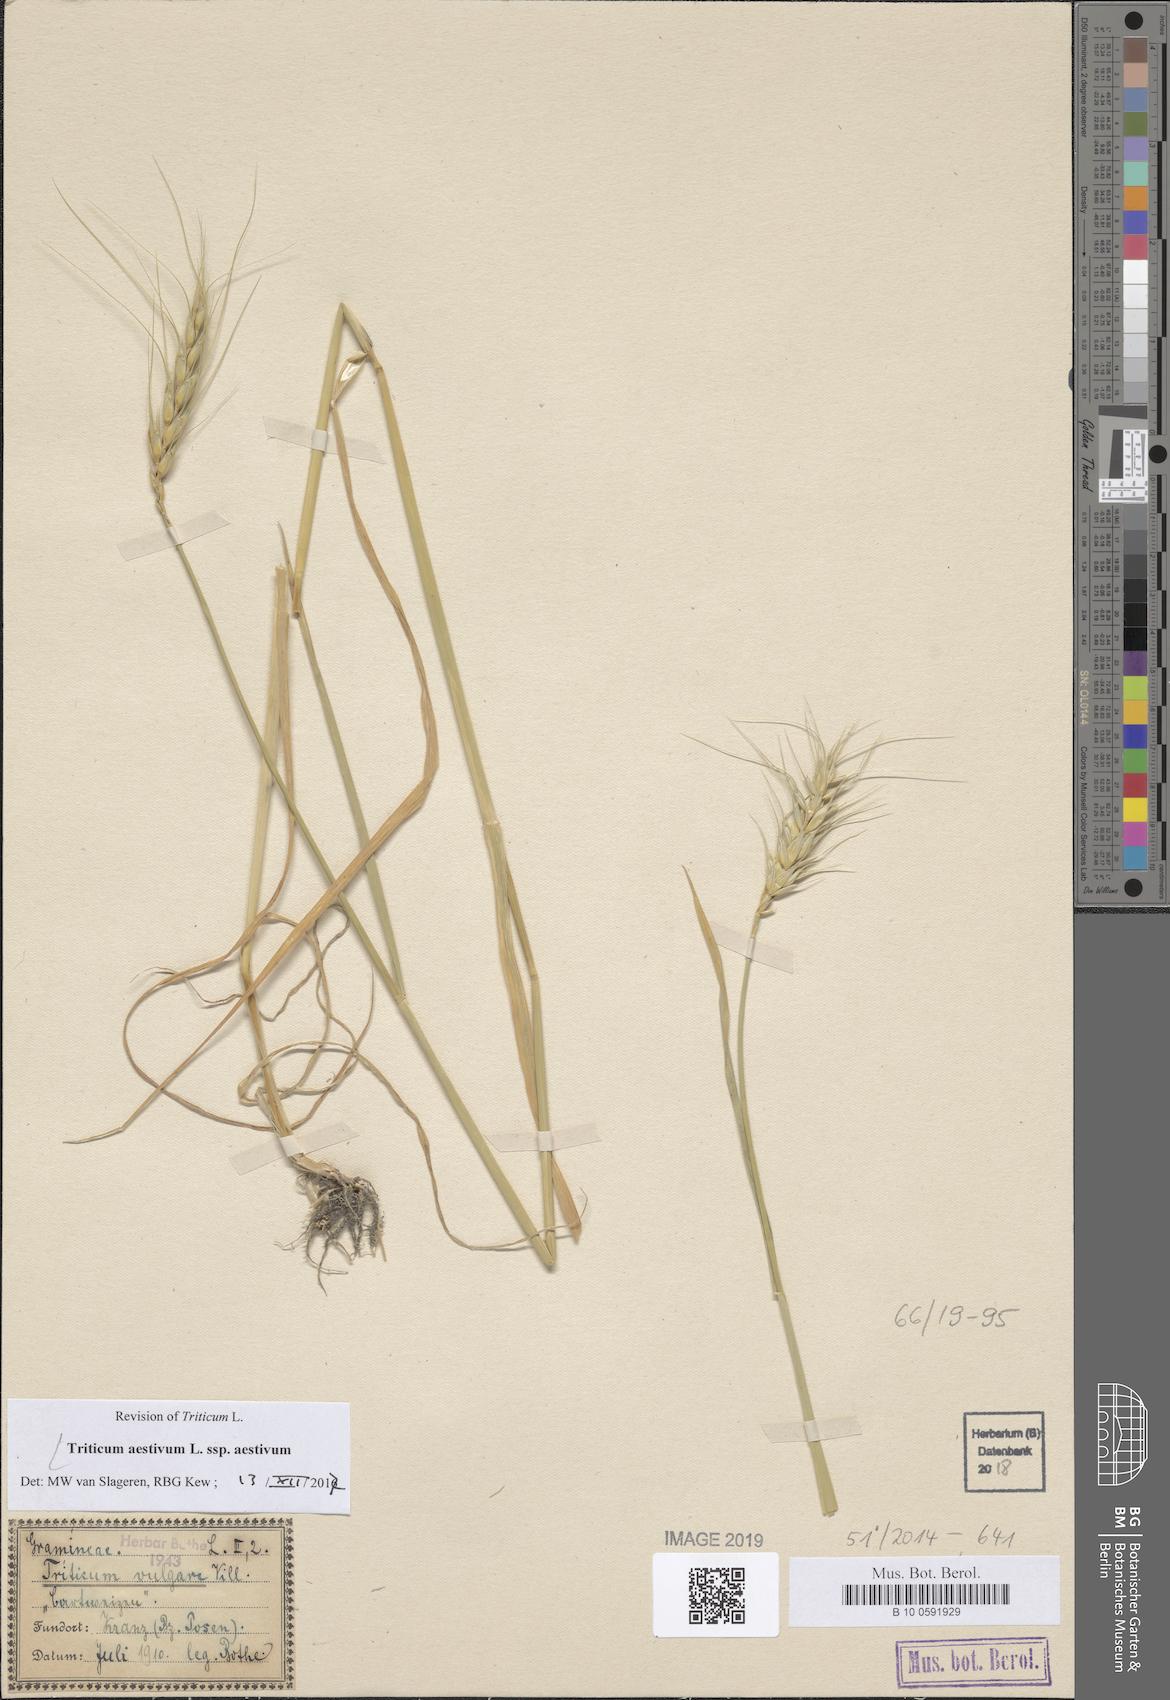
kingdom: Plantae
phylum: Tracheophyta
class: Liliopsida
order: Poales
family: Poaceae
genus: Triticum
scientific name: Triticum aestivum
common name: Common wheat
